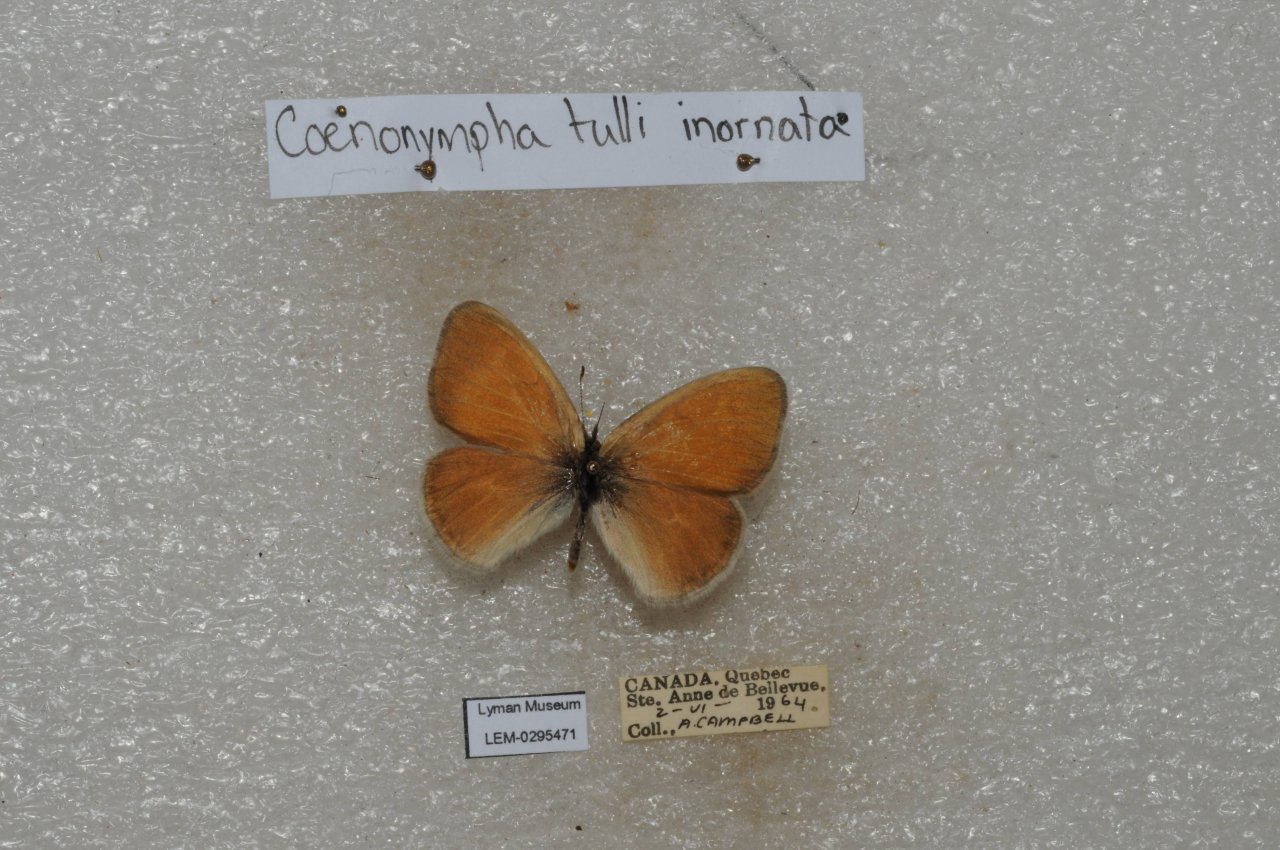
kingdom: Animalia
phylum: Arthropoda
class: Insecta
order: Lepidoptera
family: Nymphalidae
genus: Coenonympha
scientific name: Coenonympha tullia
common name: Large Heath
